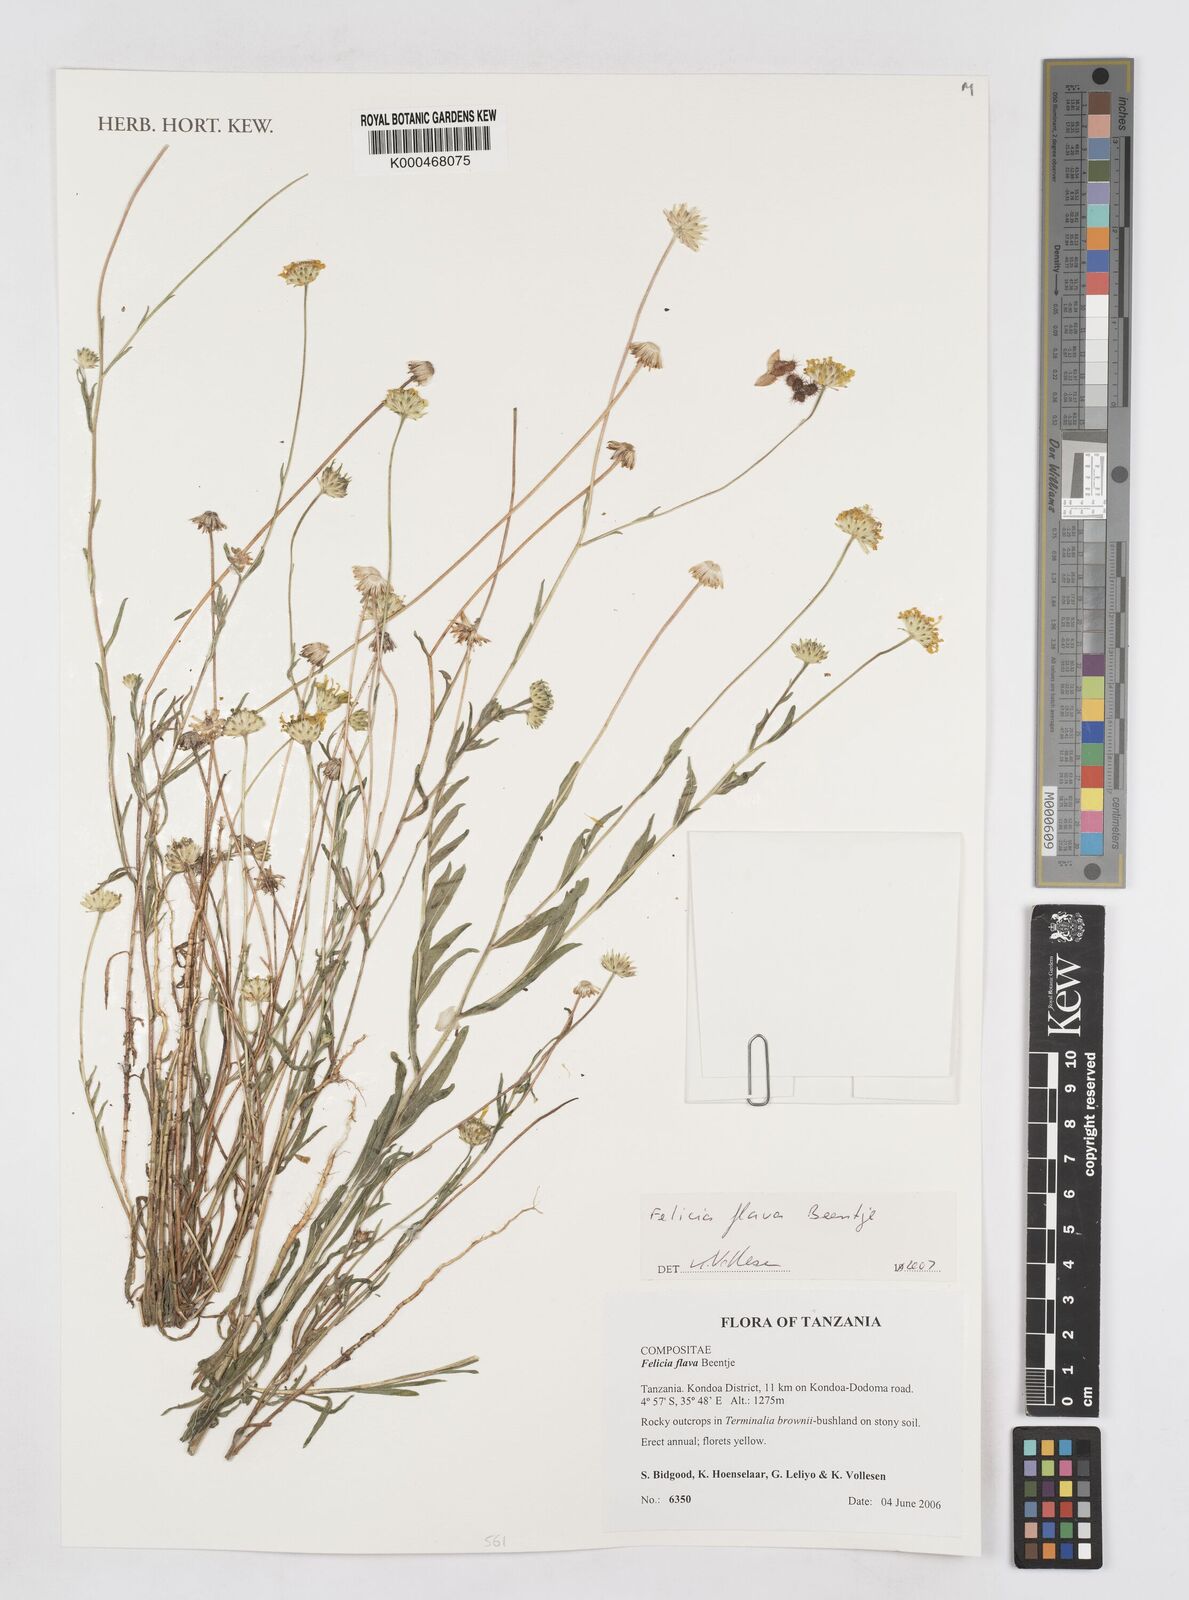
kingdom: Plantae
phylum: Tracheophyta
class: Magnoliopsida
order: Asterales
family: Asteraceae
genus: Felicia
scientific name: Felicia flava
